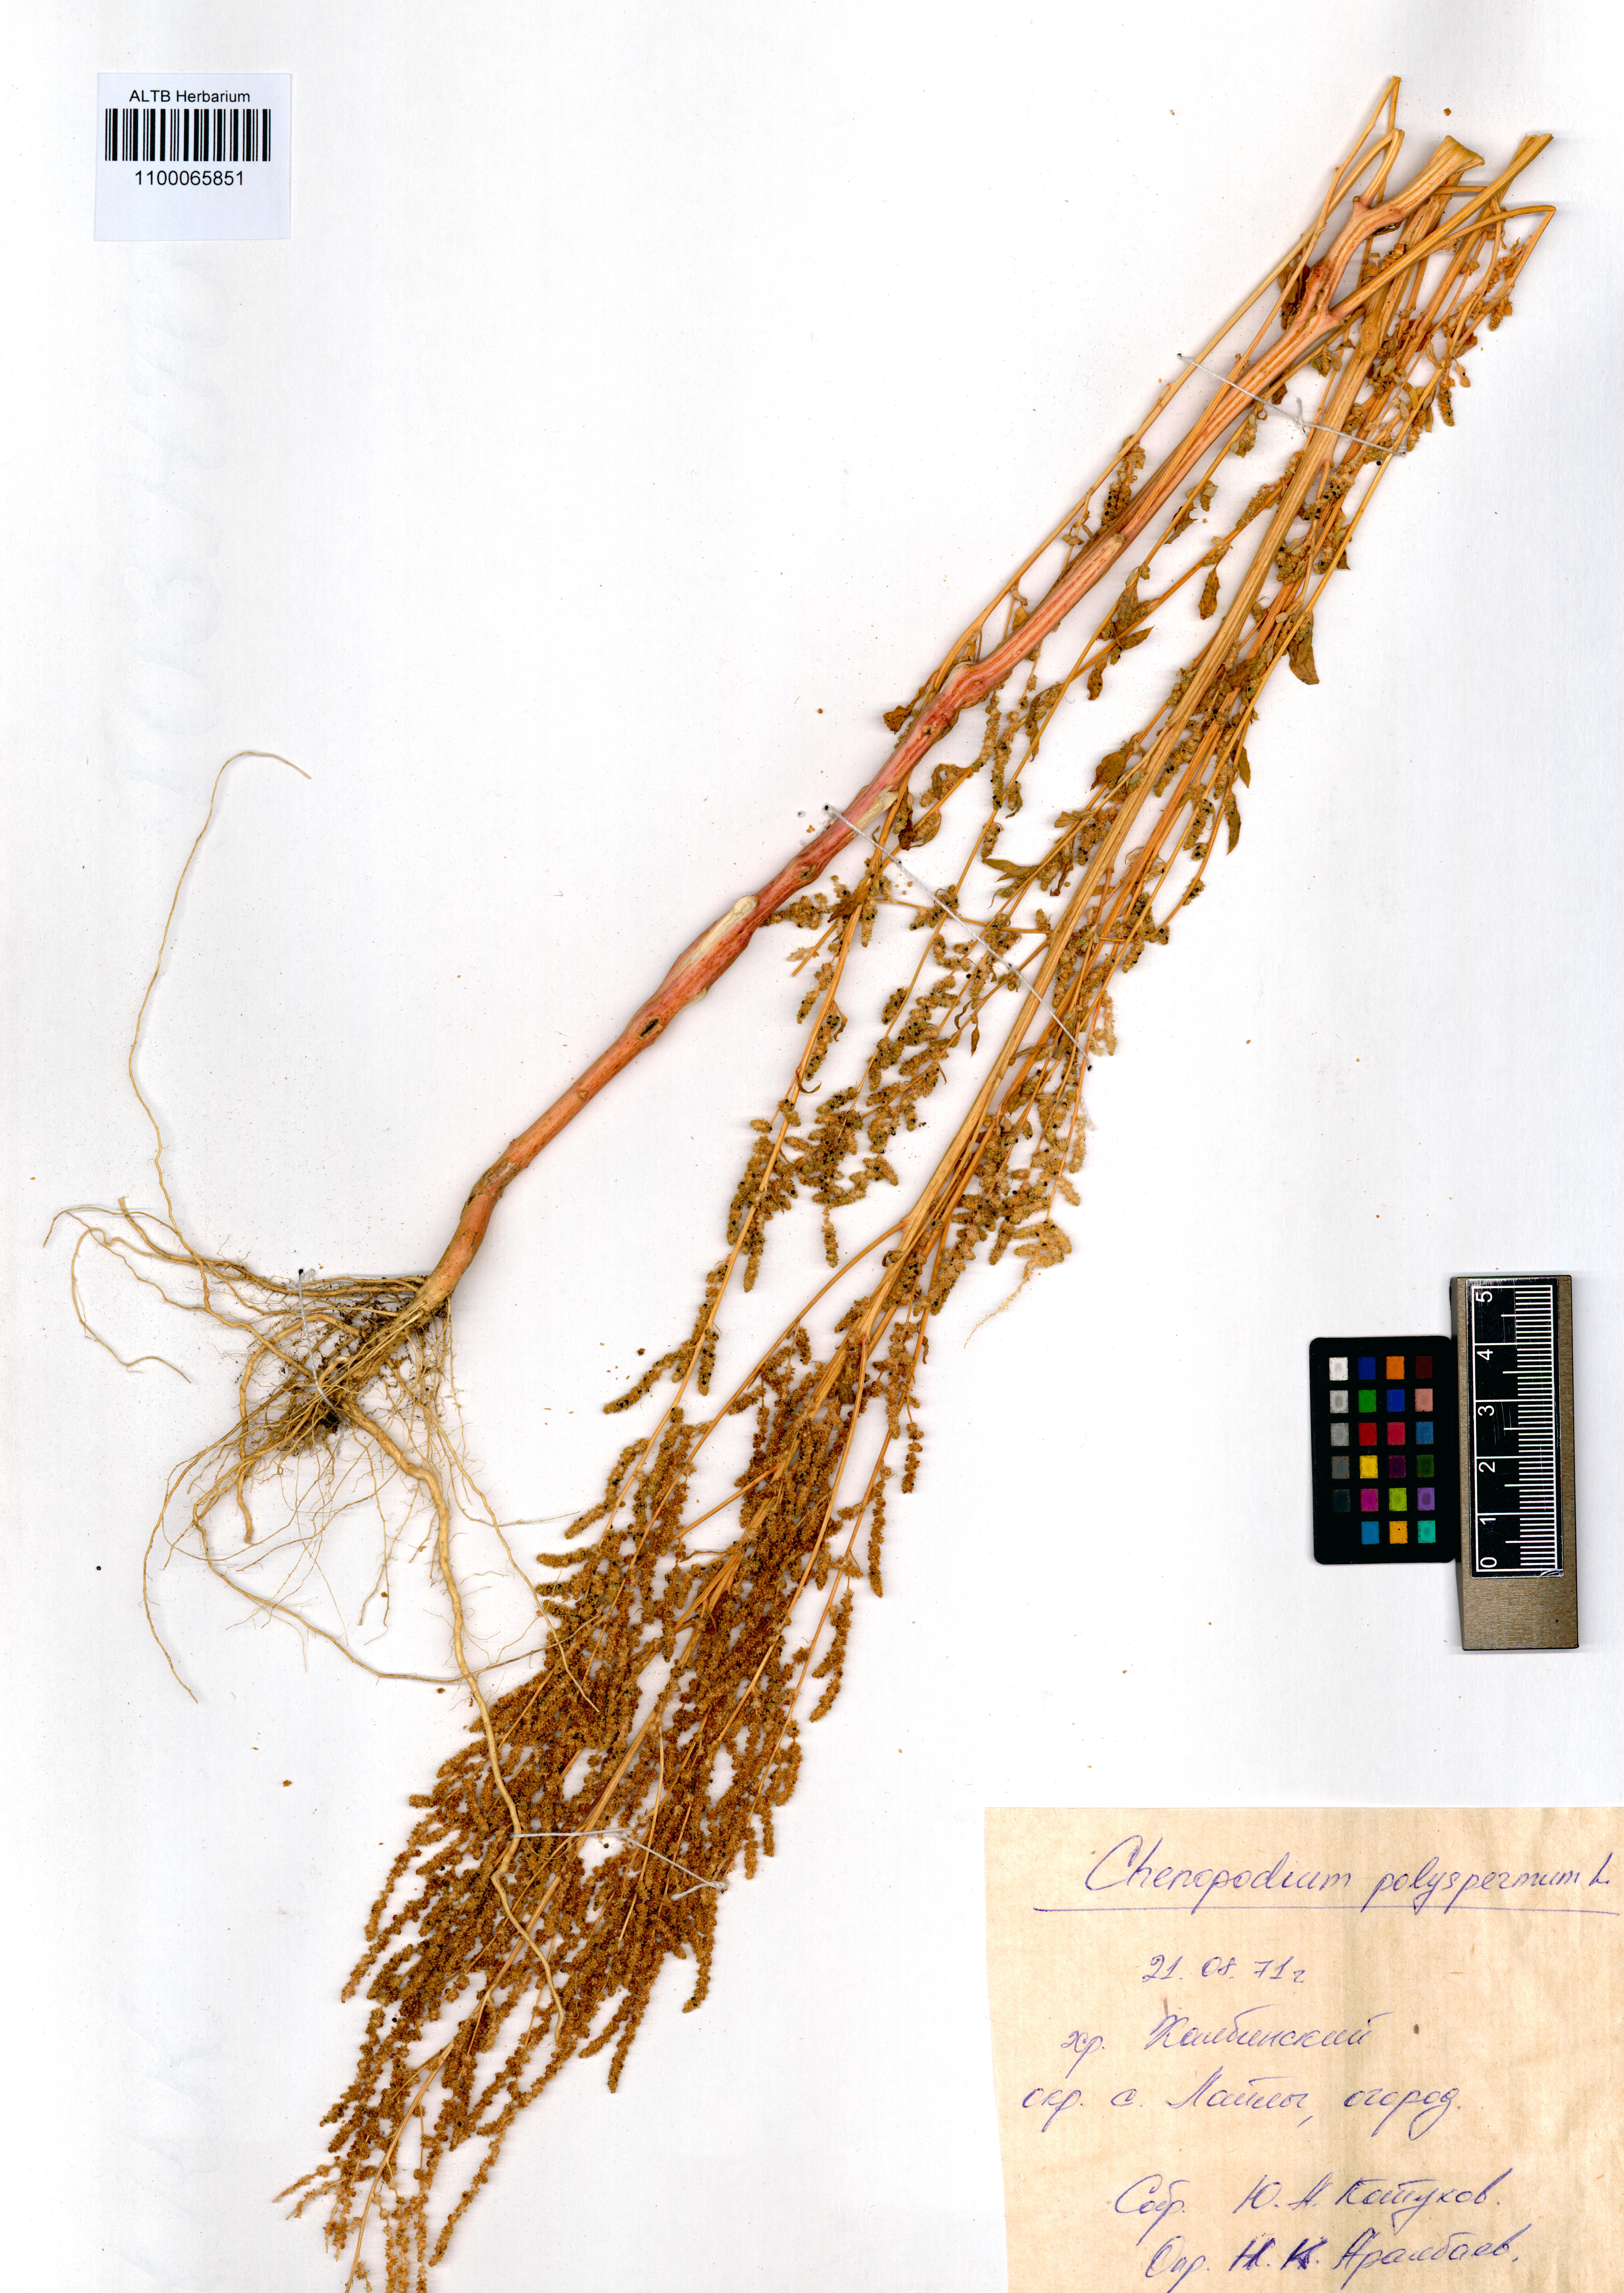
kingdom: Plantae
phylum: Tracheophyta
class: Magnoliopsida
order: Caryophyllales
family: Amaranthaceae
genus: Lipandra
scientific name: Lipandra polysperma
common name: Many-seed goosefoot
